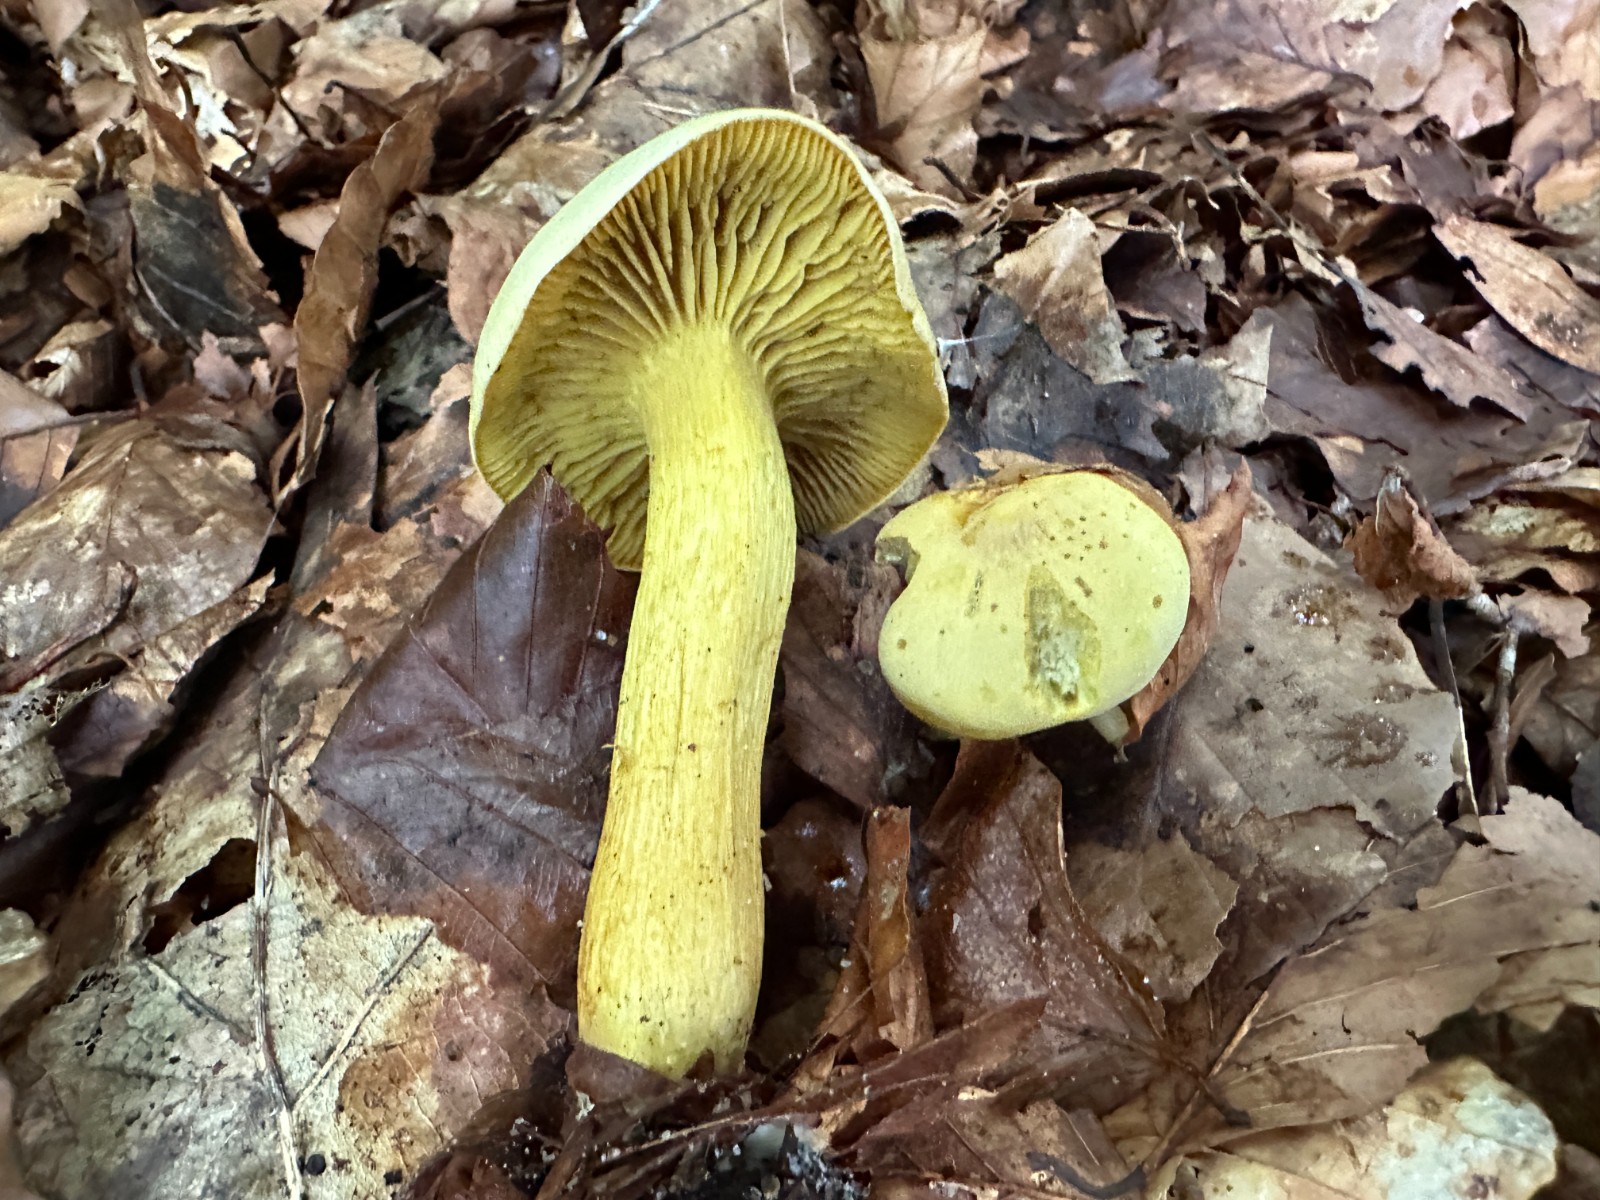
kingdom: Fungi
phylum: Basidiomycota
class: Agaricomycetes
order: Agaricales
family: Tricholomataceae
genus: Tricholoma
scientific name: Tricholoma sulphureum
